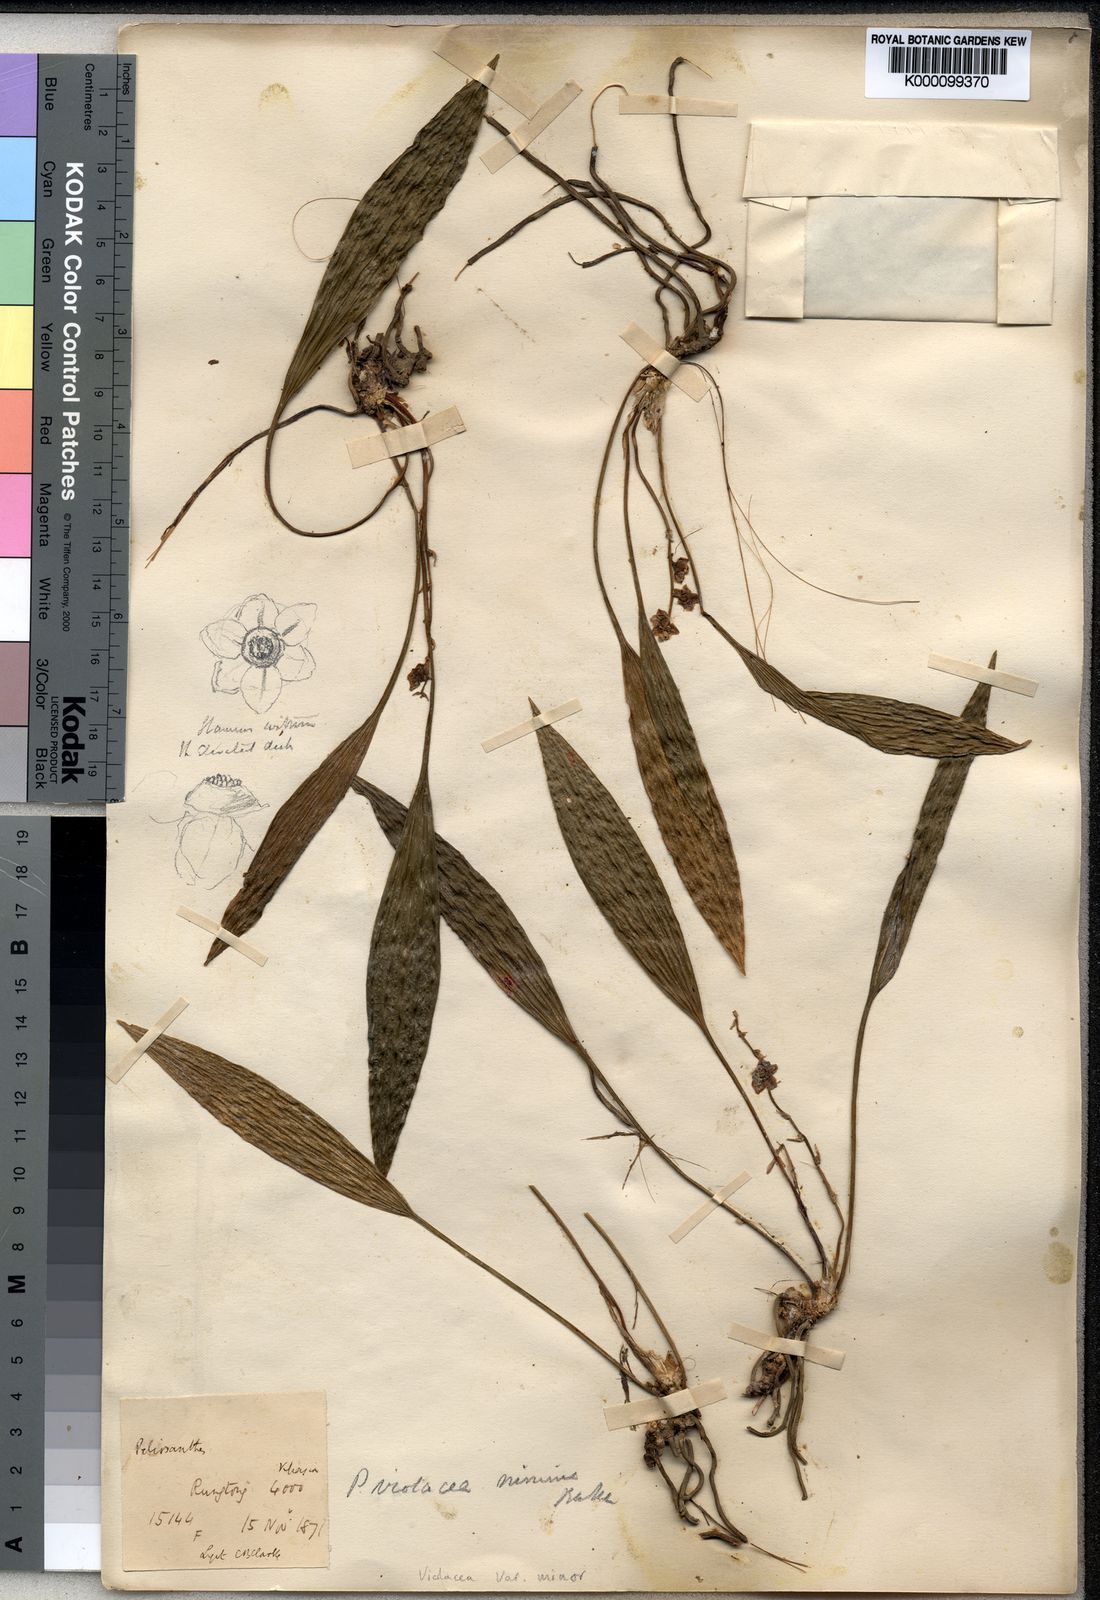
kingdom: Plantae
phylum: Tracheophyta
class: Liliopsida
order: Asparagales
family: Asparagaceae
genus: Peliosanthes
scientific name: Peliosanthes
